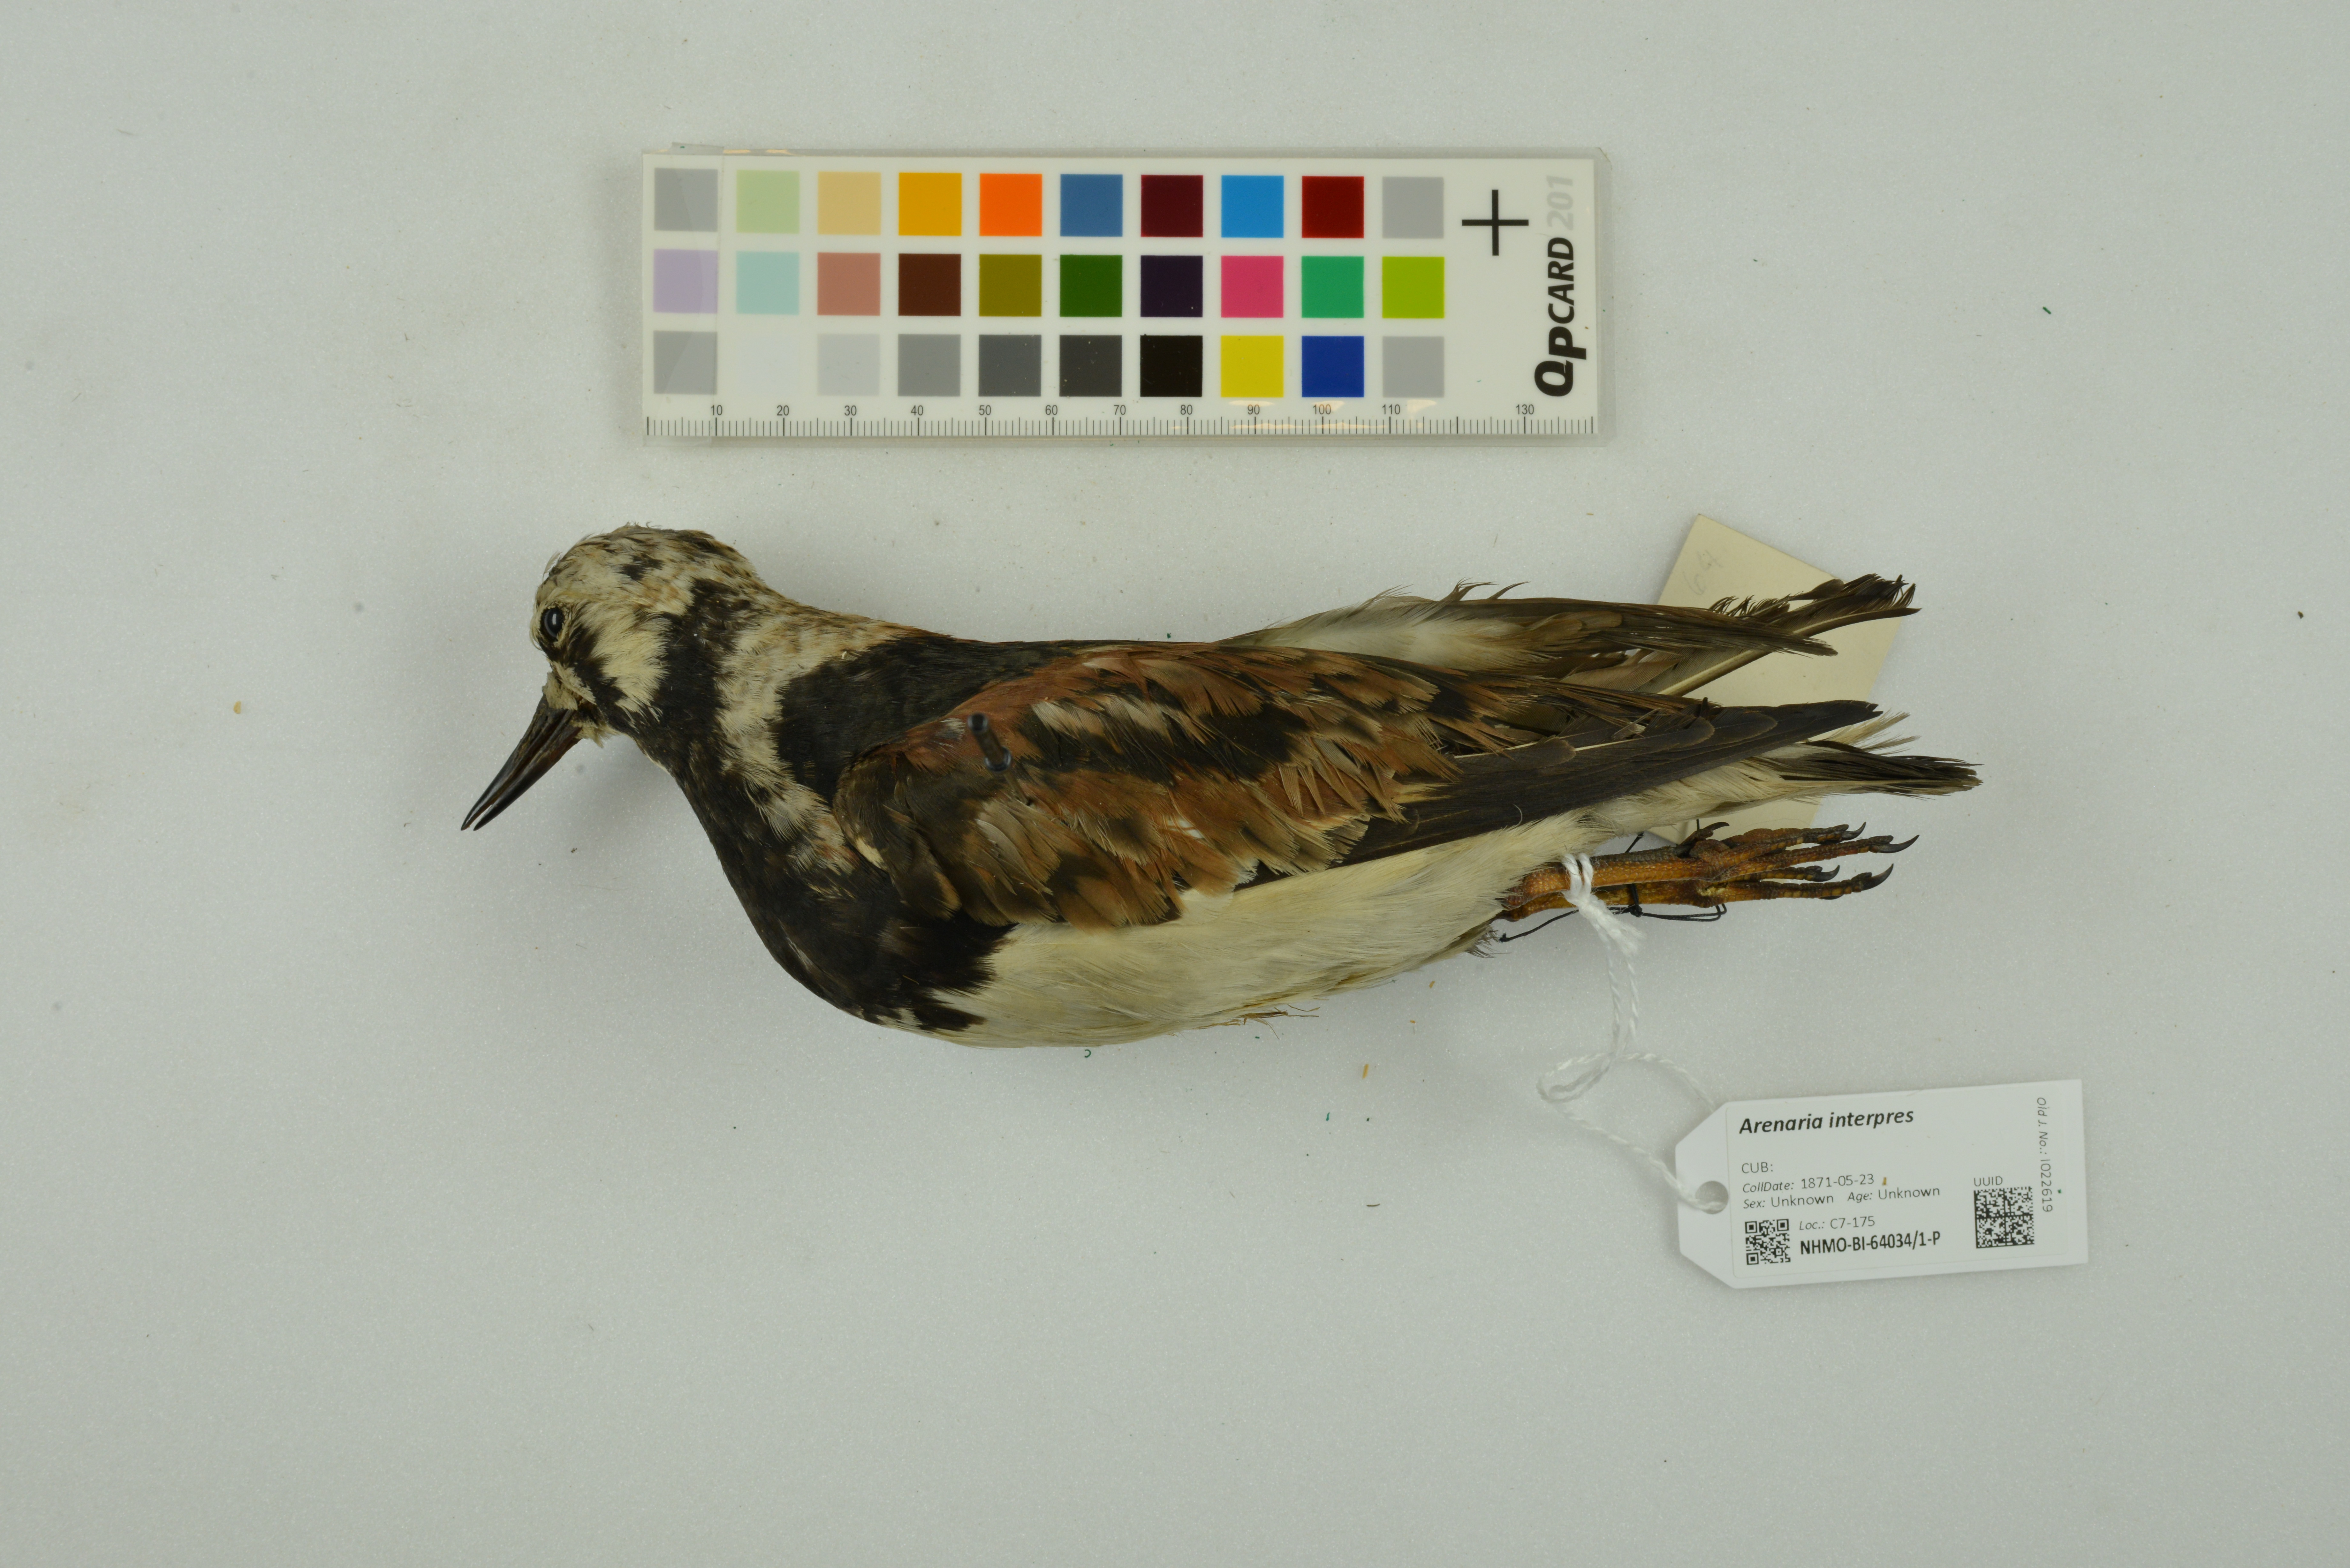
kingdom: Animalia
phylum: Chordata
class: Aves
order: Charadriiformes
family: Scolopacidae
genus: Arenaria
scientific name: Arenaria interpres
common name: Ruddy turnstone
